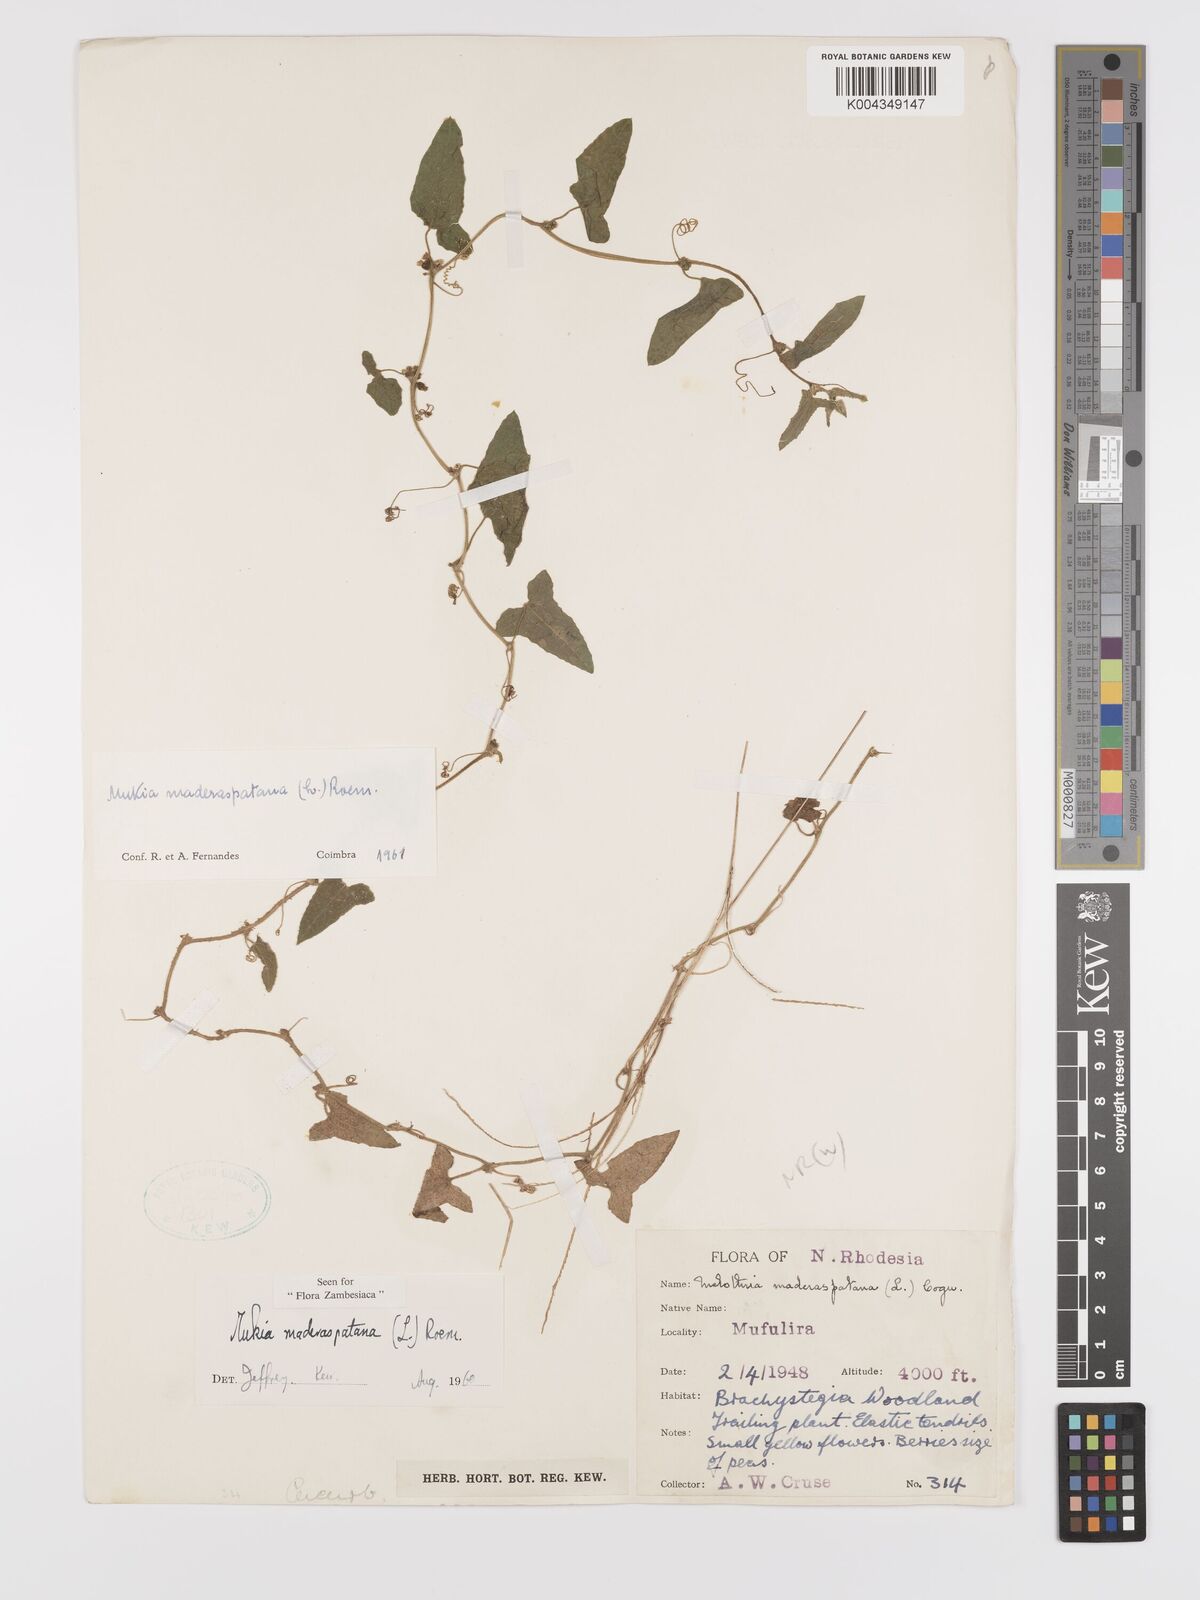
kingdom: Plantae
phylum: Tracheophyta
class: Magnoliopsida
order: Cucurbitales
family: Cucurbitaceae
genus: Cucumis
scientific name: Cucumis maderaspatanus
